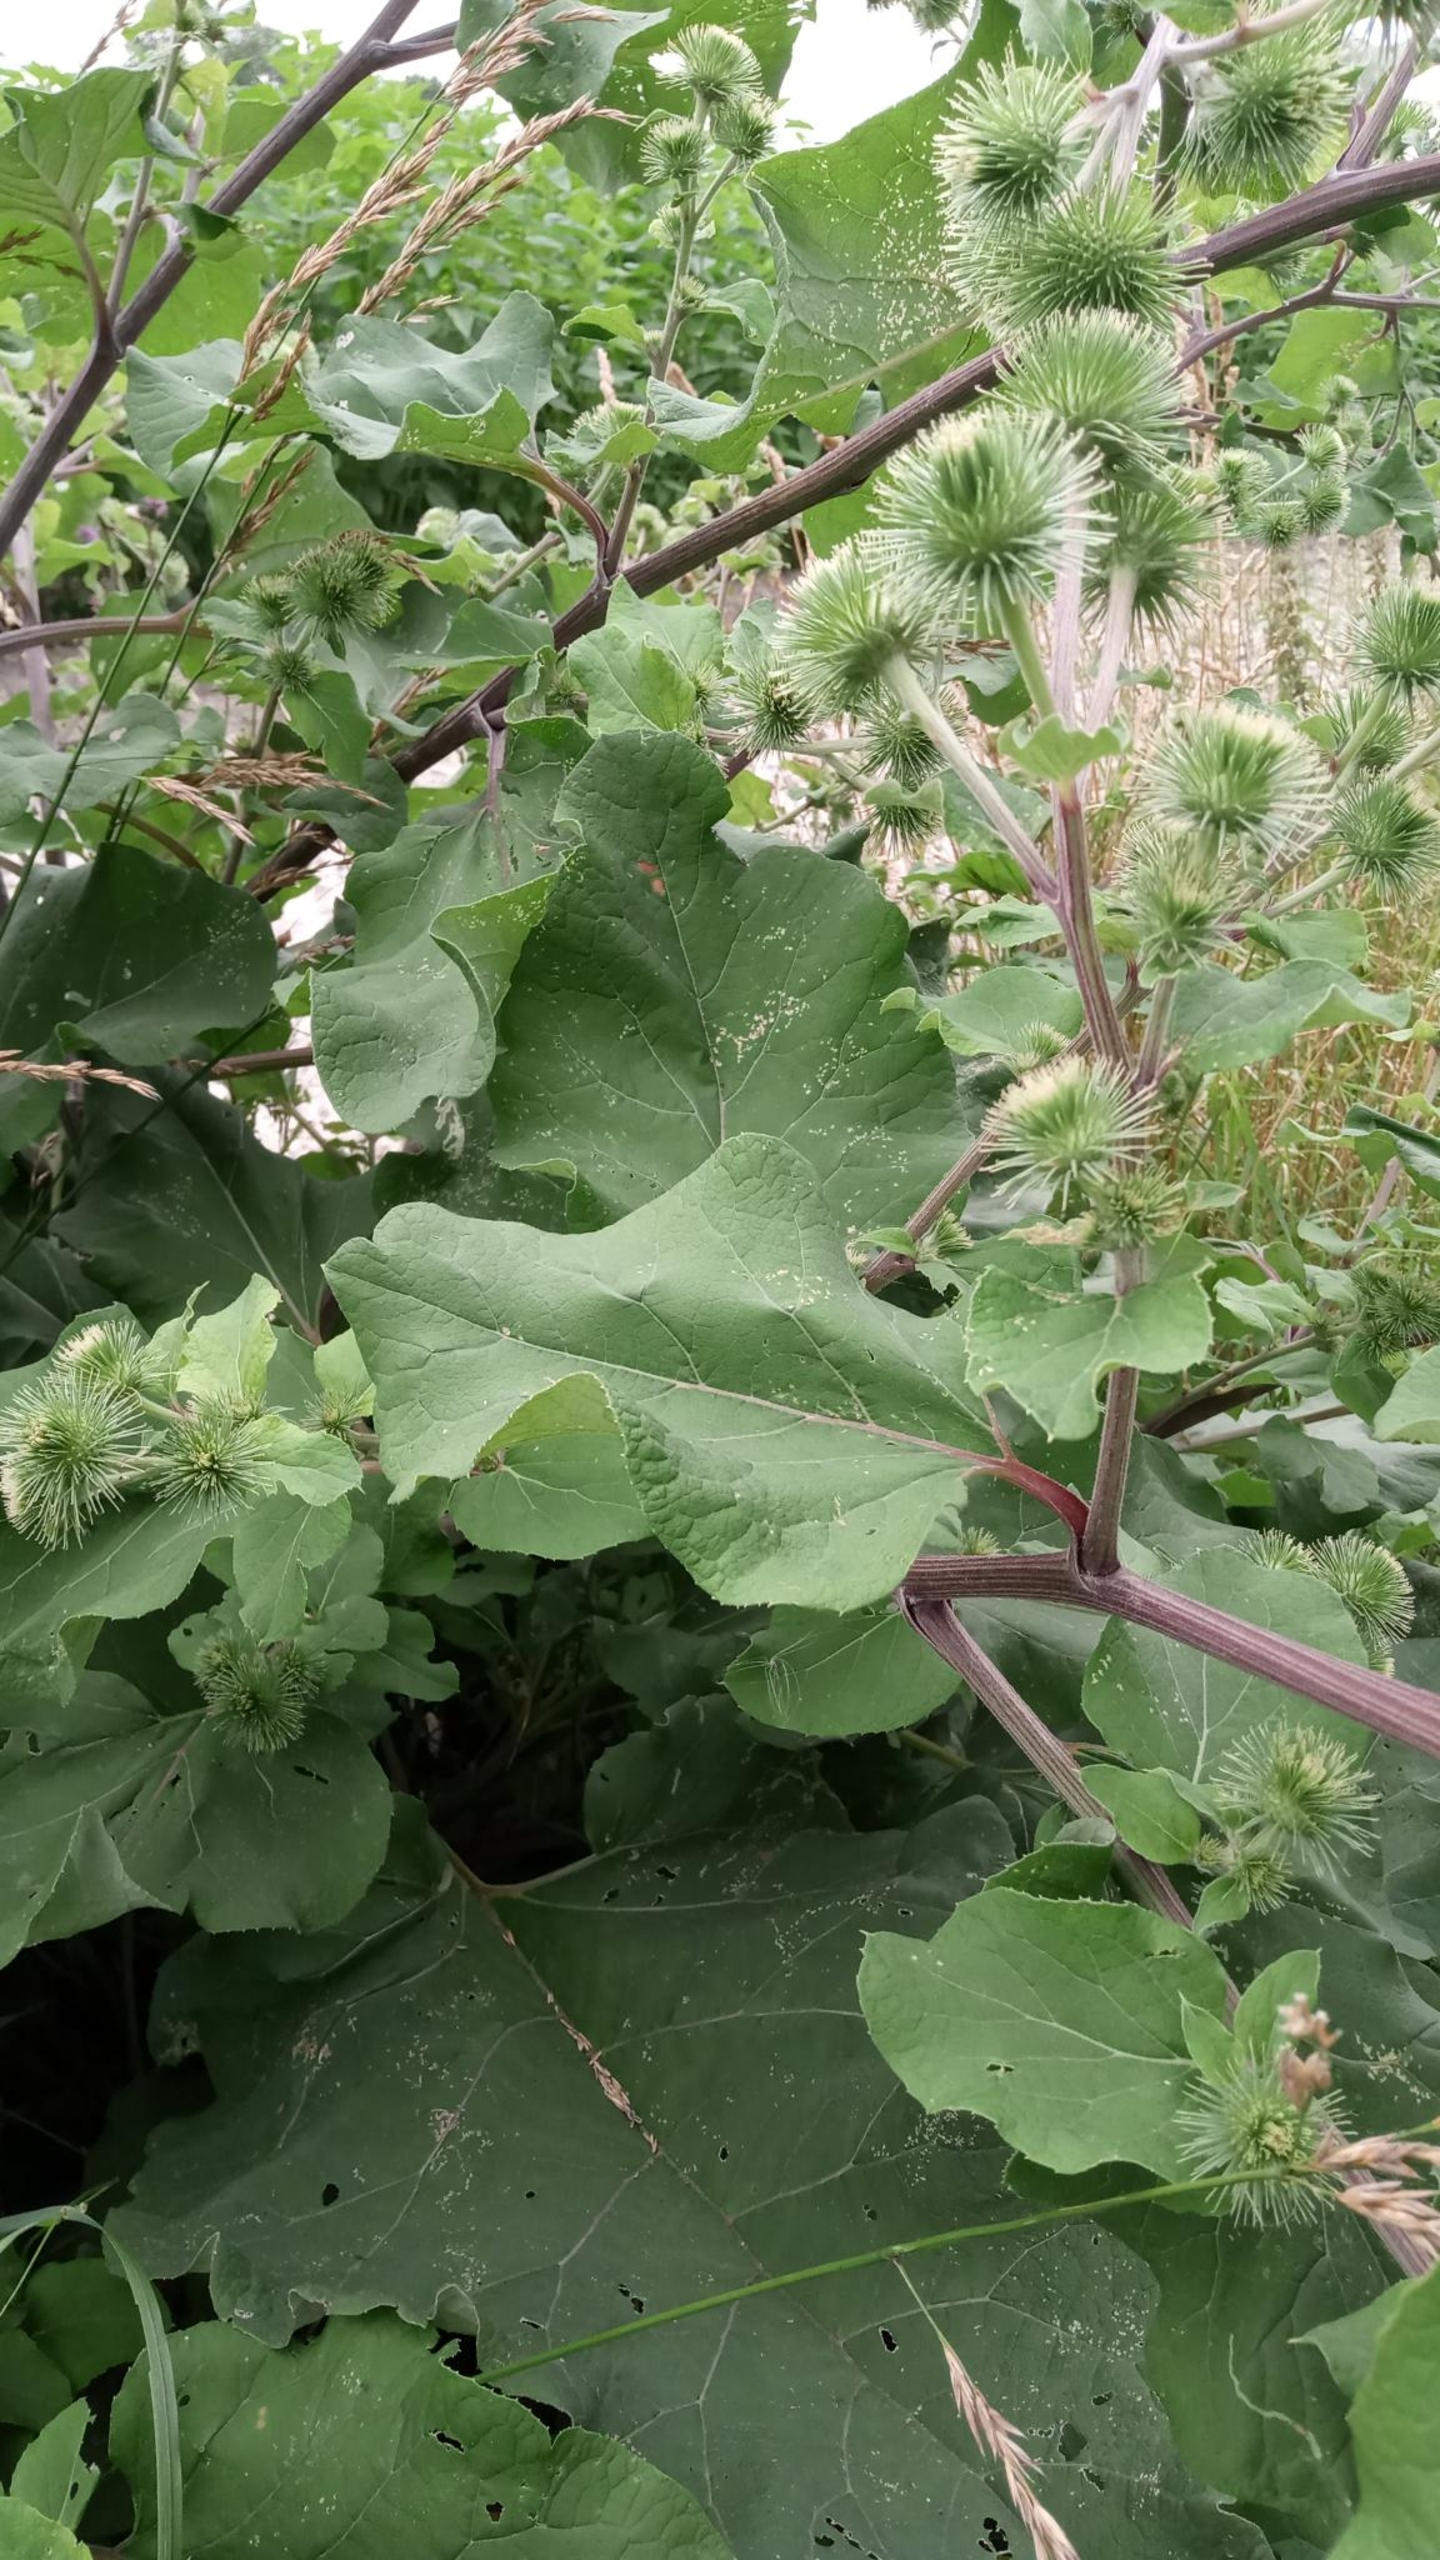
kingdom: Plantae
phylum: Tracheophyta
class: Magnoliopsida
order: Asterales
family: Asteraceae
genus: Arctium
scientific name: Arctium lappa
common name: Glat burre
